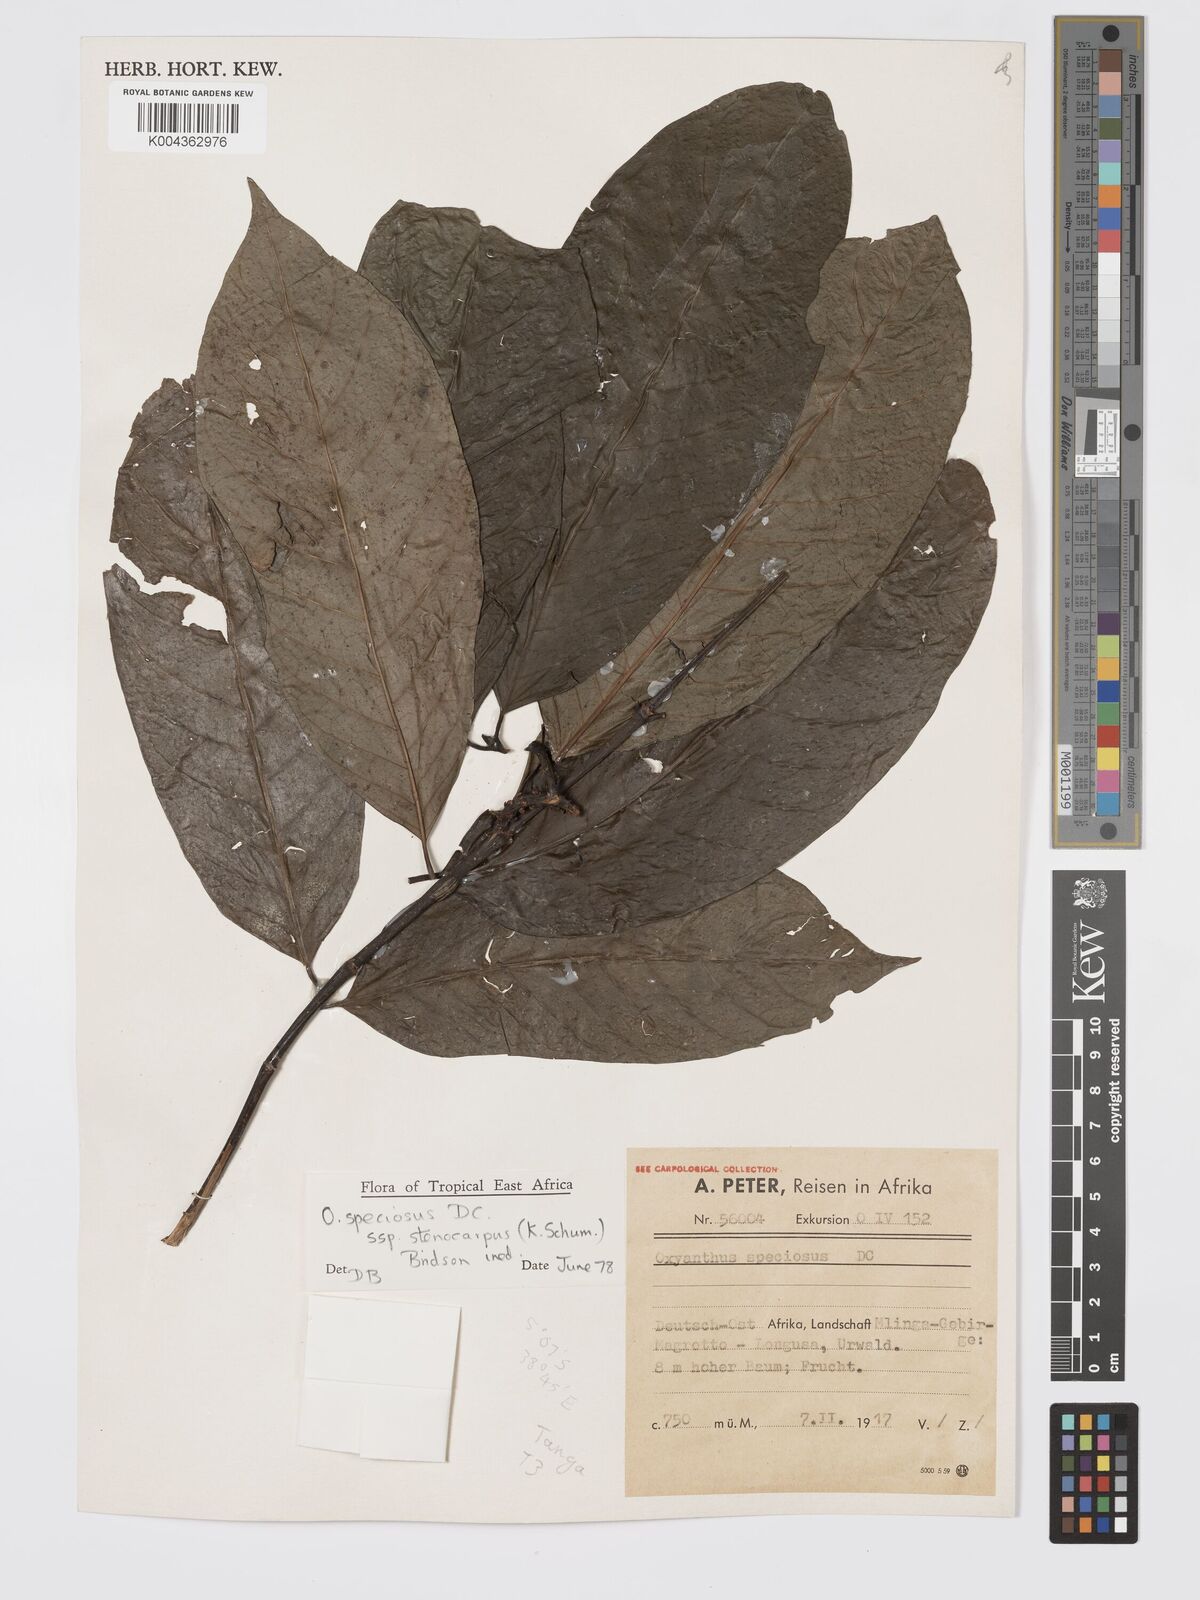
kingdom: Plantae
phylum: Tracheophyta
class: Magnoliopsida
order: Gentianales
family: Rubiaceae
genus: Oxyanthus
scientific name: Oxyanthus speciosus
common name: Whipstick loquat
